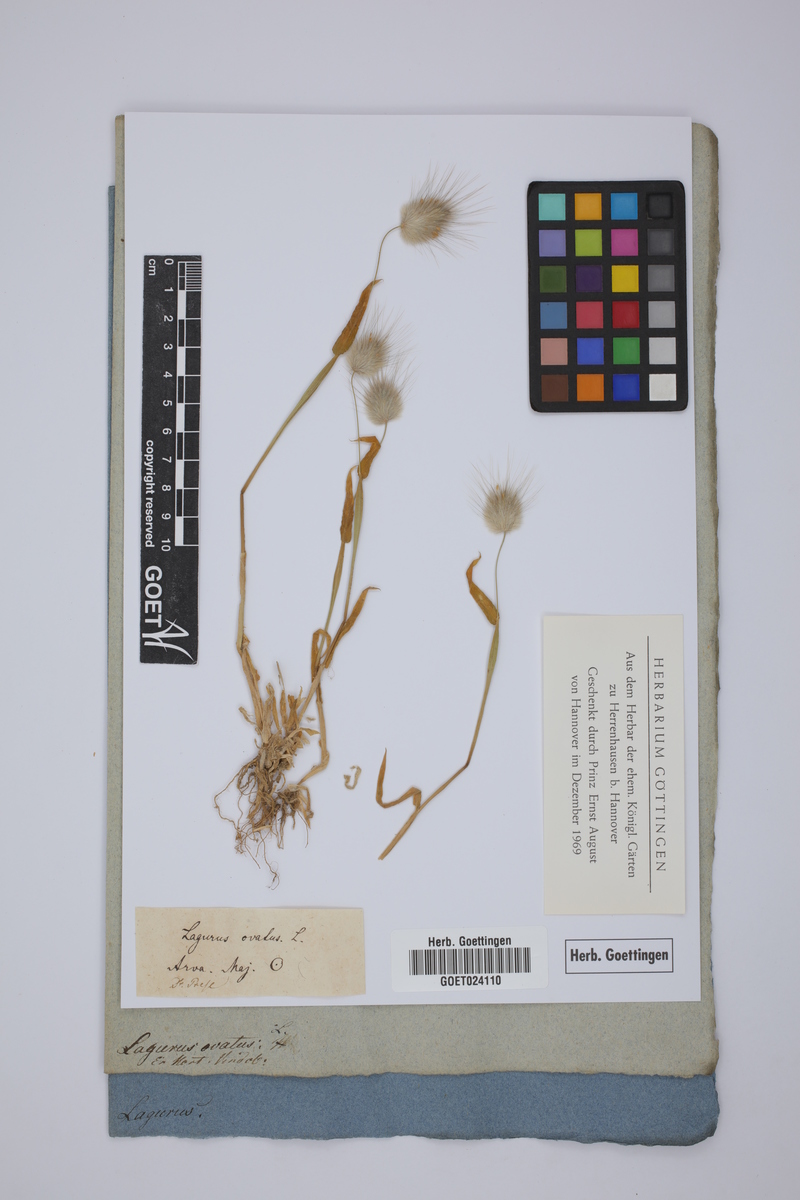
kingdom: Plantae
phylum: Tracheophyta
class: Liliopsida
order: Poales
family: Poaceae
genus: Lagurus
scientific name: Lagurus ovatus
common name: Hare's-tail
